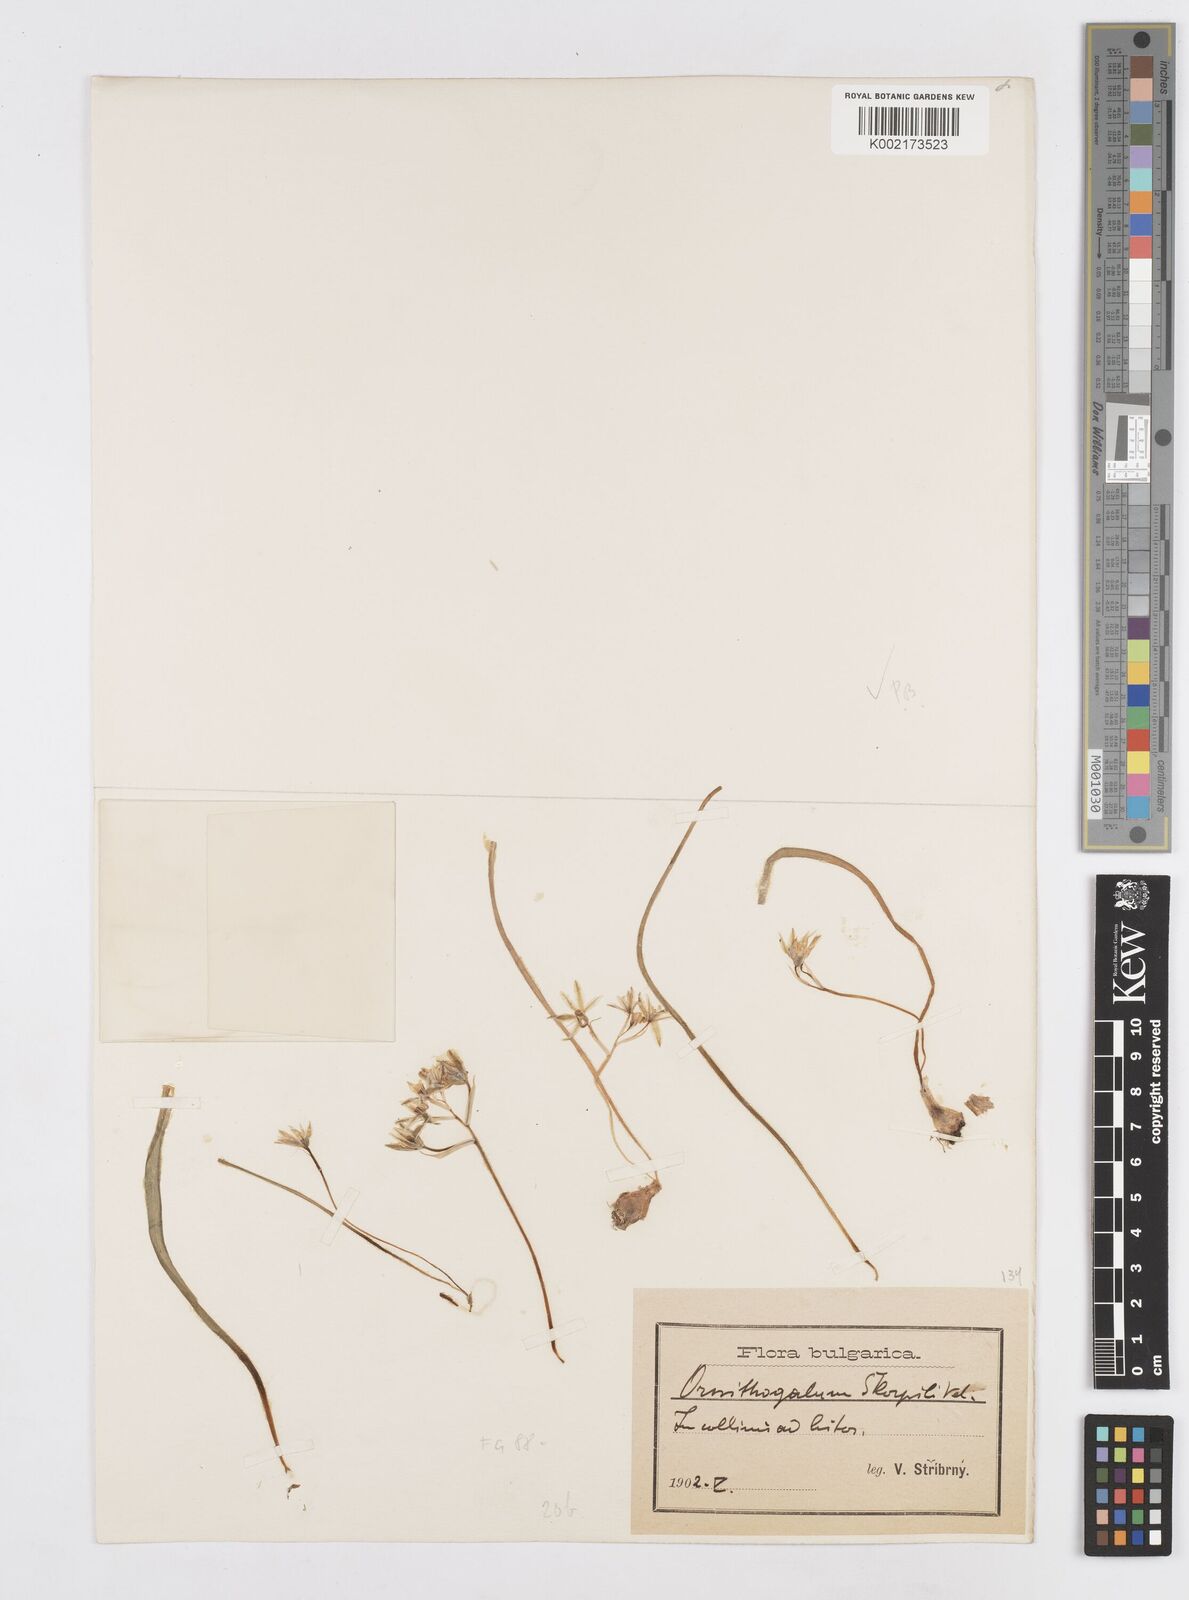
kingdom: Plantae
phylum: Tracheophyta
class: Liliopsida
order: Asparagales
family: Asparagaceae
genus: Ornithogalum
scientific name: Ornithogalum fimbriatum
